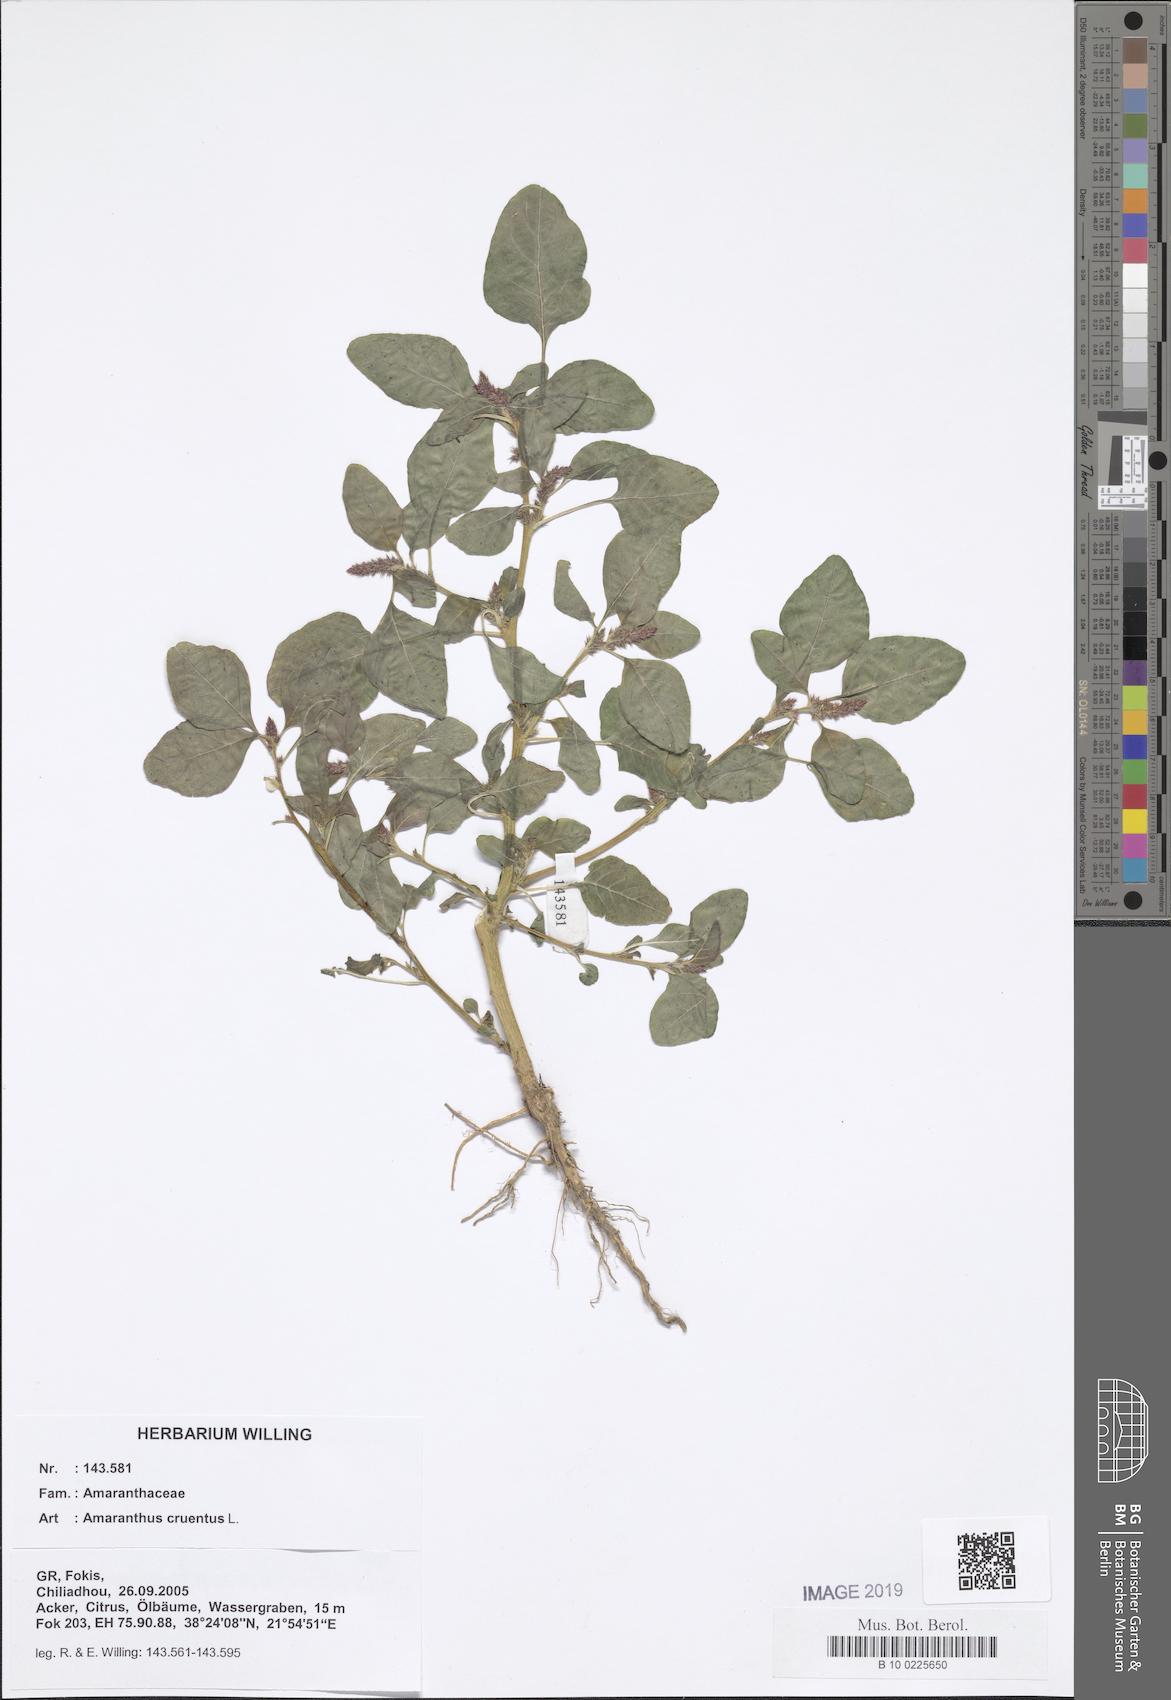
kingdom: Plantae
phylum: Tracheophyta
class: Magnoliopsida
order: Caryophyllales
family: Amaranthaceae
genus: Amaranthus
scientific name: Amaranthus cruentus
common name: Purple amaranth
